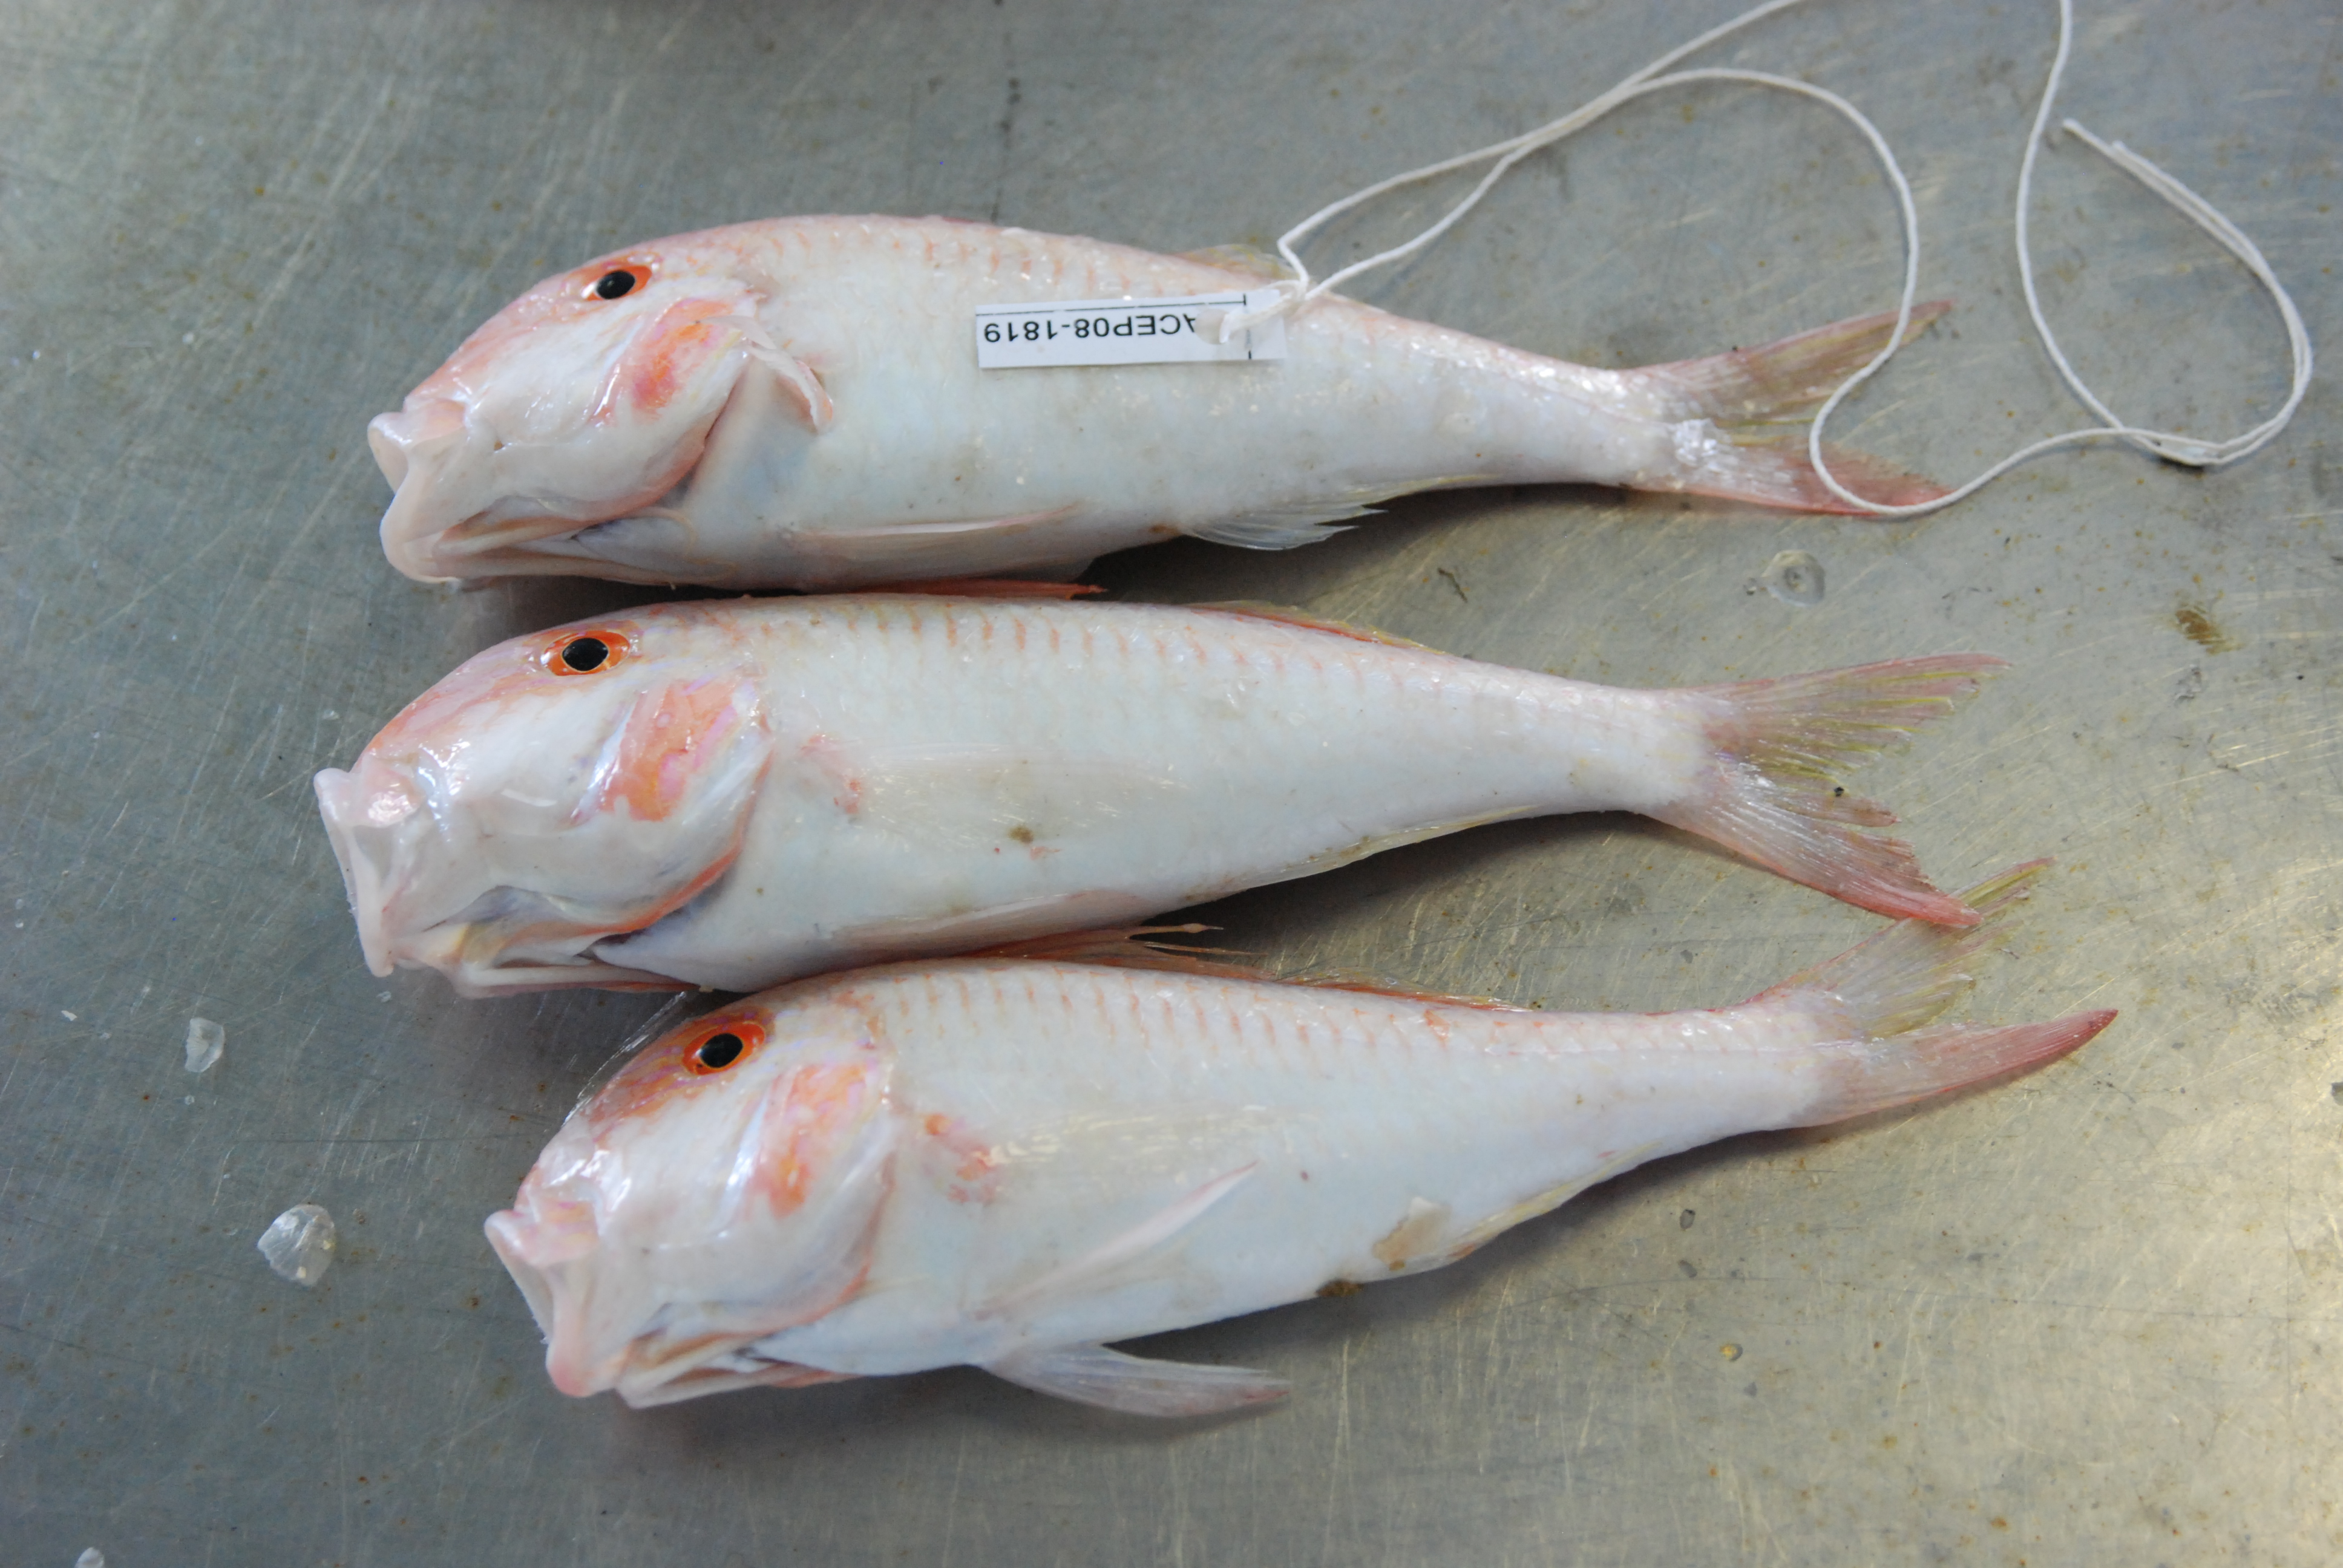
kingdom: Animalia
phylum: Chordata
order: Perciformes
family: Mullidae
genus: Parupeneus
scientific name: Parupeneus procerigena
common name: Deep-cheek goatfish
